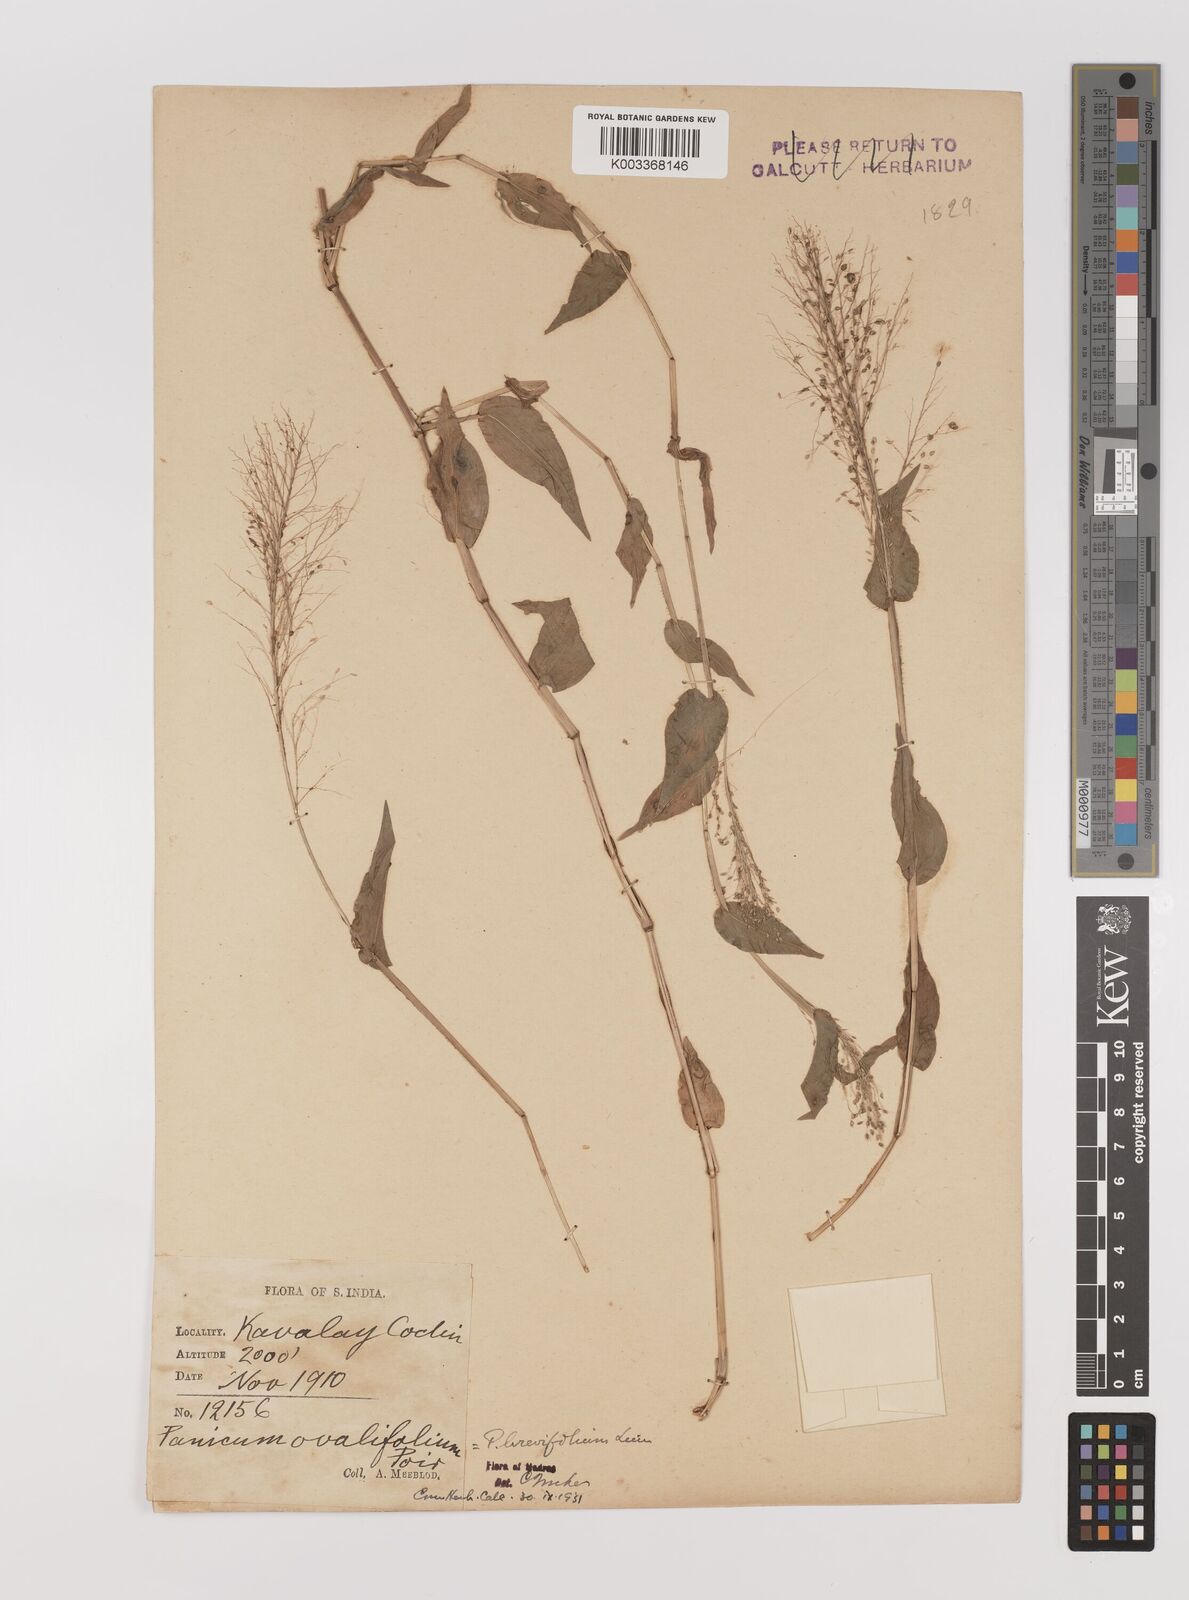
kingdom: Plantae
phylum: Tracheophyta
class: Liliopsida
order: Poales
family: Poaceae
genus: Panicum
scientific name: Panicum brevifolium
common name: Shortleaf panic grass
